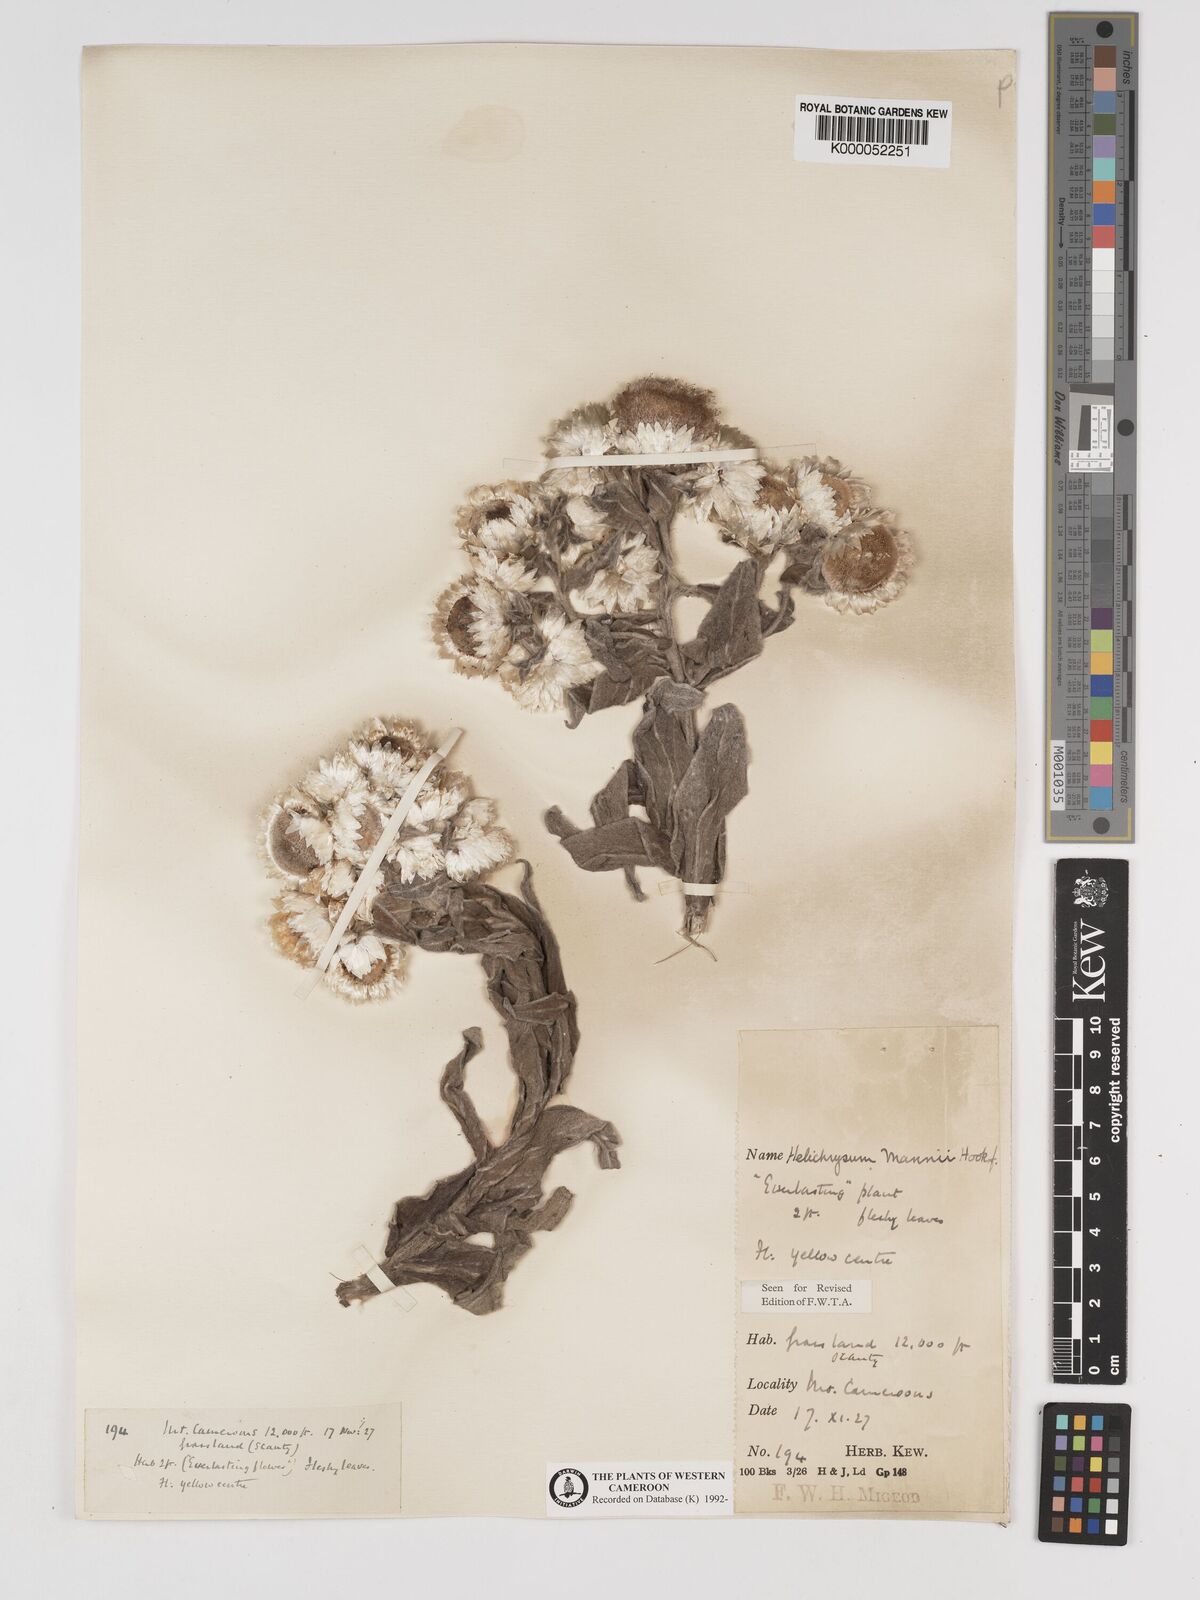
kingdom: Plantae
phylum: Tracheophyta
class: Magnoliopsida
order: Asterales
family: Asteraceae
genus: Helichrysum
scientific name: Helichrysum mannii
